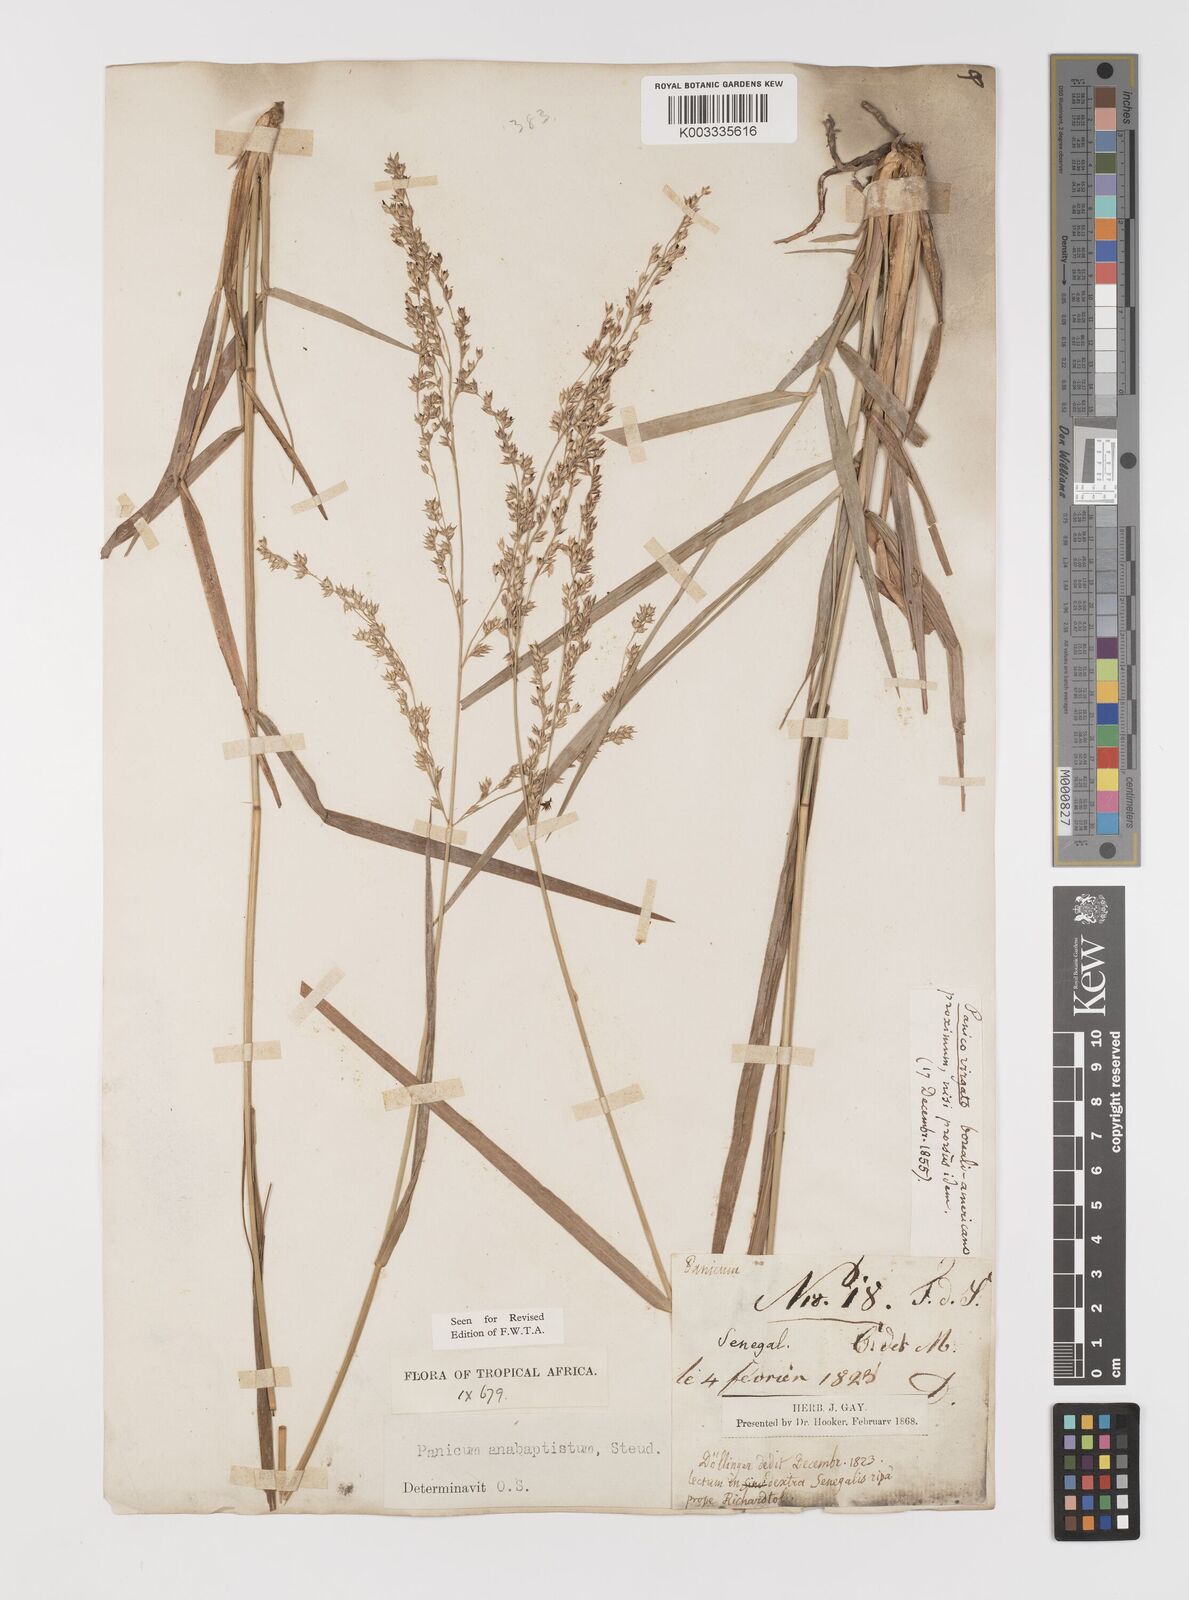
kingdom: Plantae
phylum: Tracheophyta
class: Liliopsida
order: Poales
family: Poaceae
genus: Panicum
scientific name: Panicum anabaptistum
